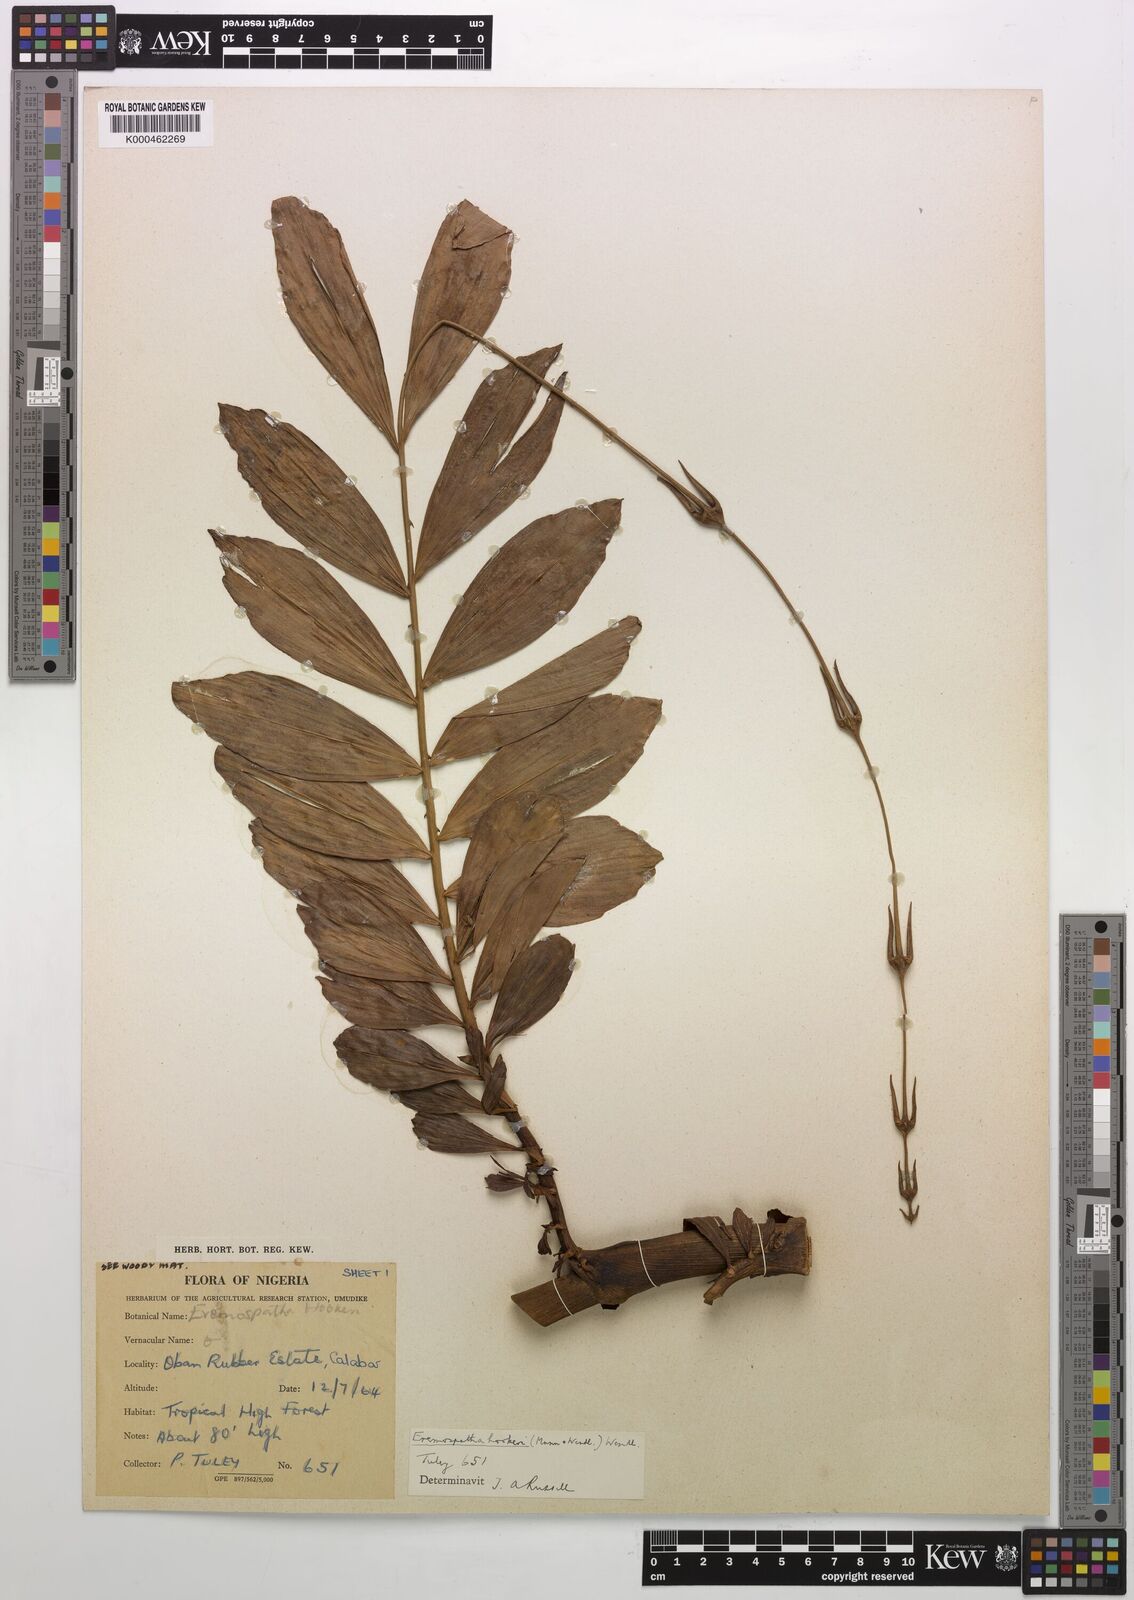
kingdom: Plantae
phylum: Tracheophyta
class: Liliopsida
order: Arecales
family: Arecaceae
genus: Eremospatha
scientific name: Eremospatha hookeri
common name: Rattan
